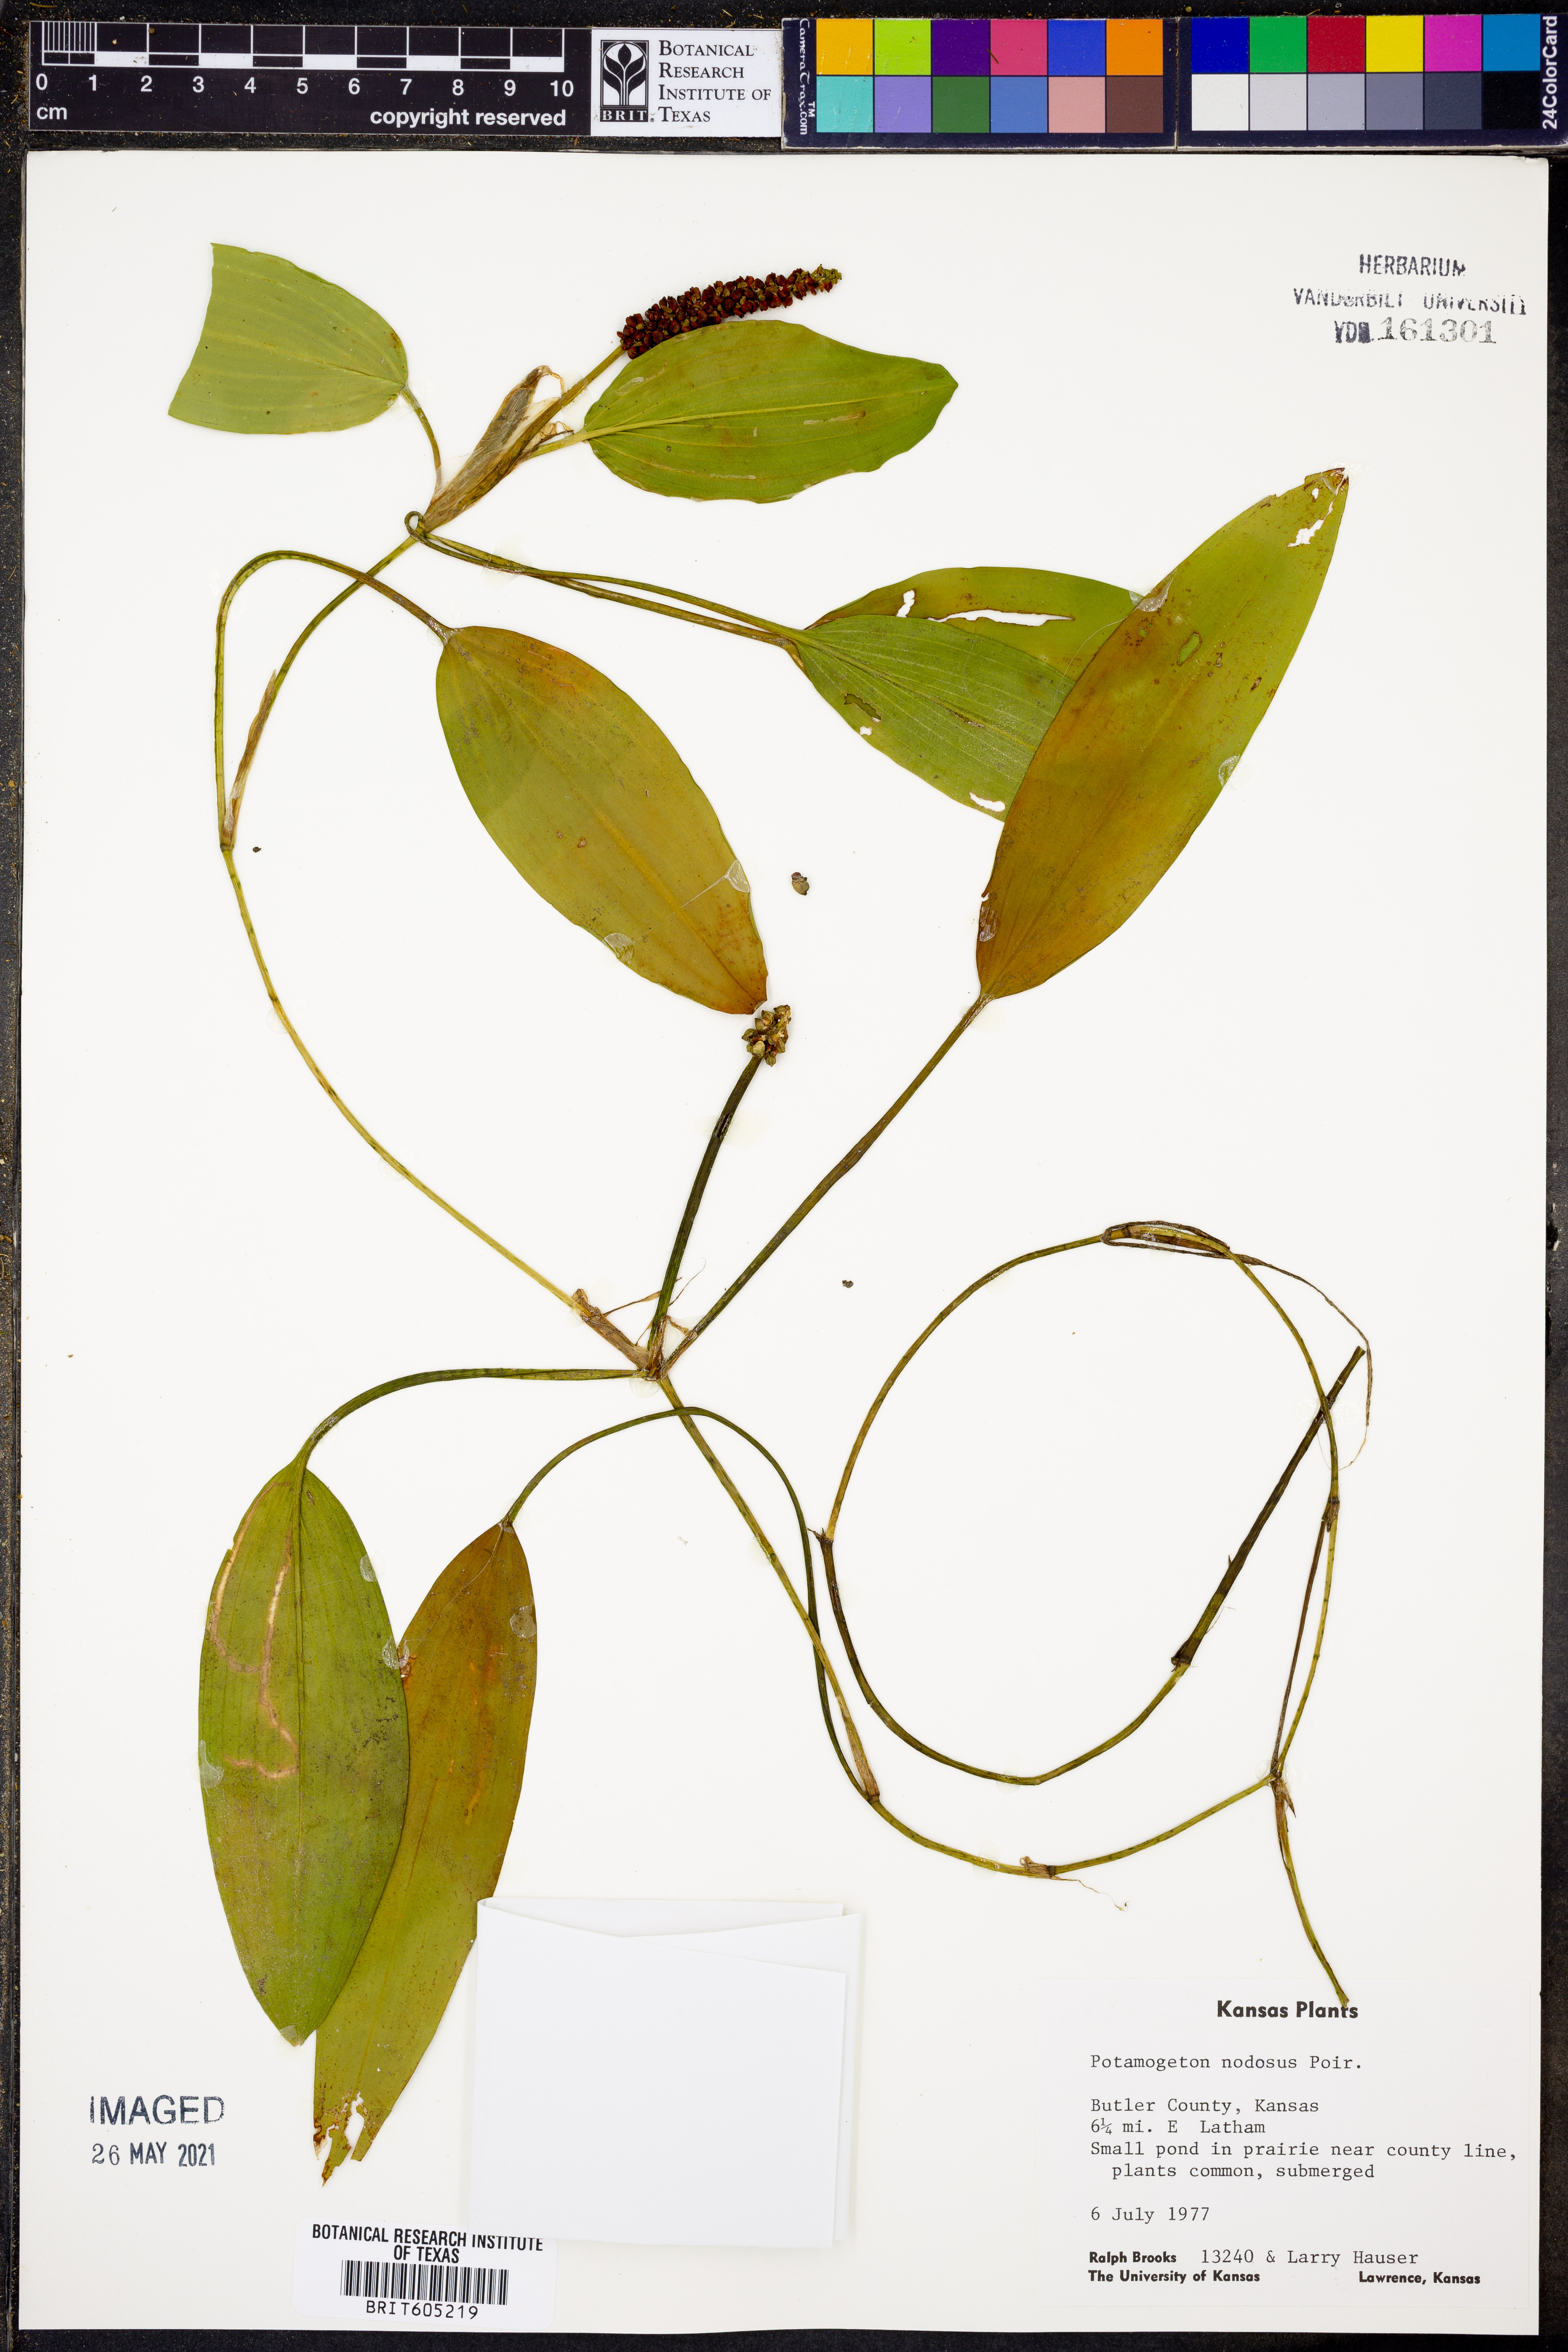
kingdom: Plantae
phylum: Tracheophyta
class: Liliopsida
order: Alismatales
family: Potamogetonaceae
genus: Potamogeton
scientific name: Potamogeton nodosus
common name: Loddon pondweed
